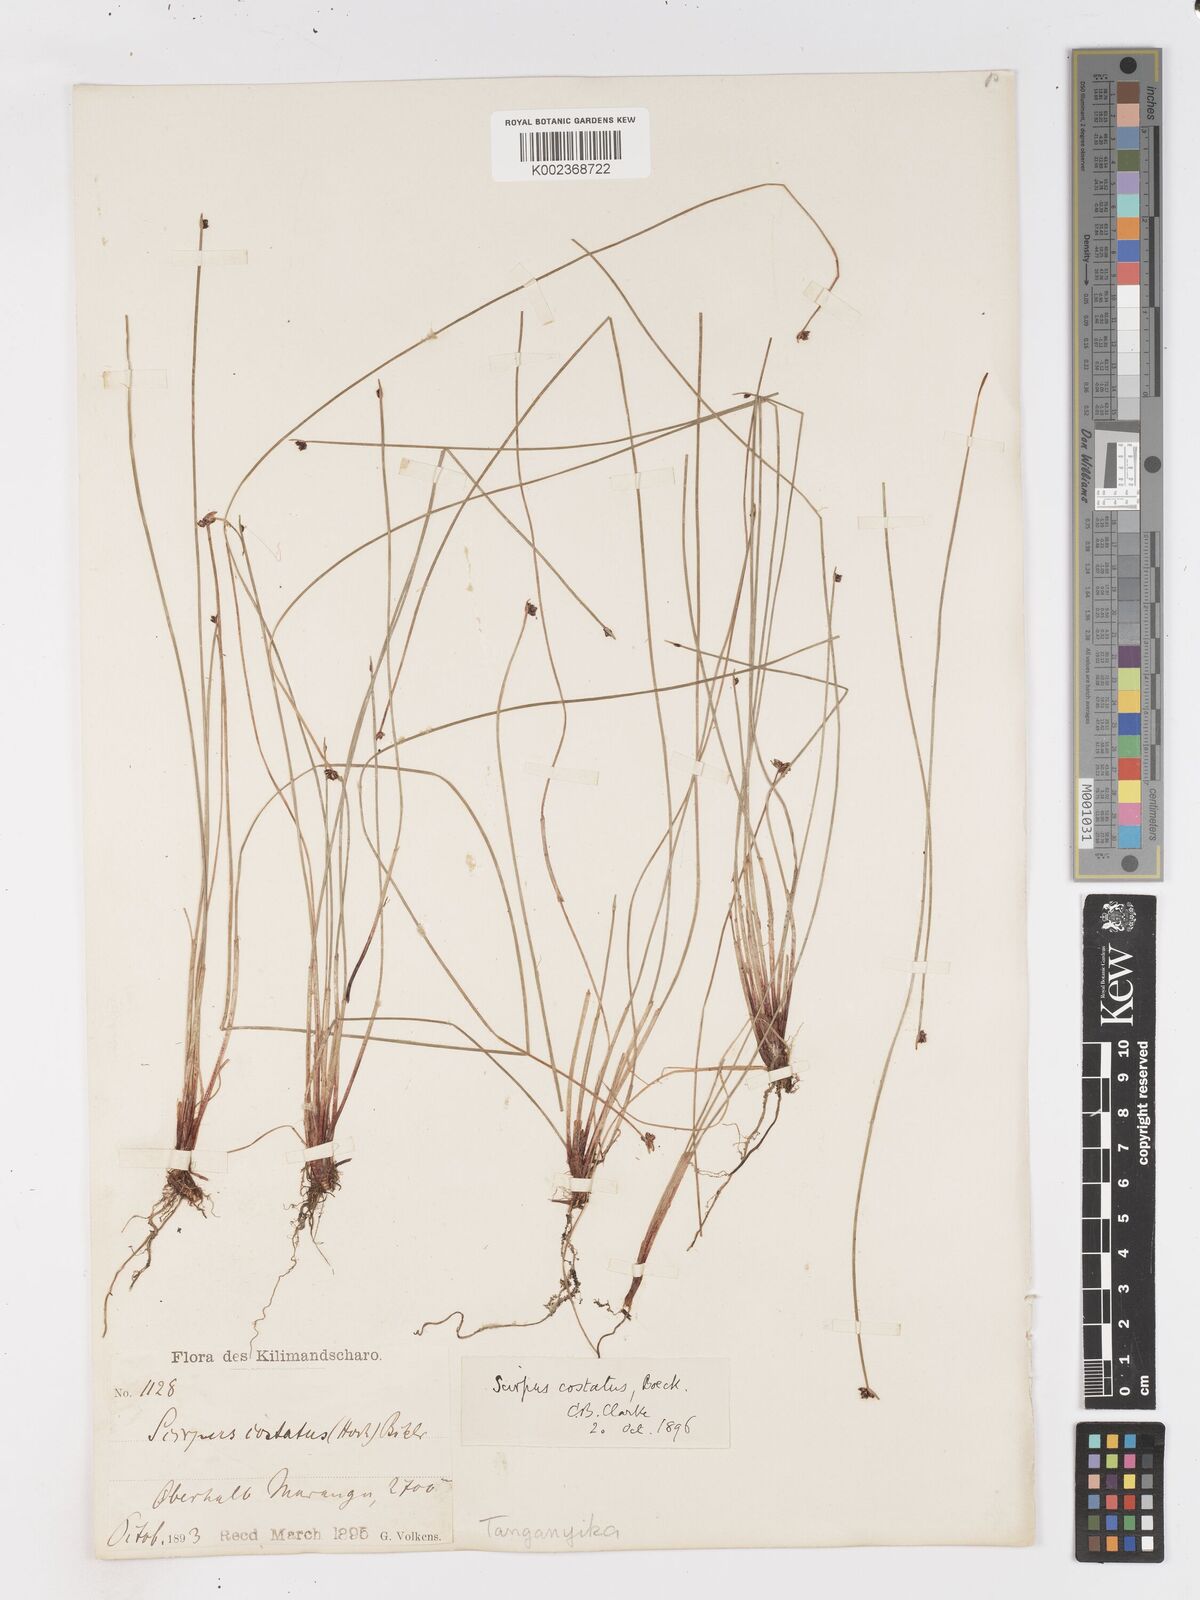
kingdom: Plantae
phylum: Tracheophyta
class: Liliopsida
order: Poales
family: Cyperaceae
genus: Isolepis
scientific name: Isolepis costata
